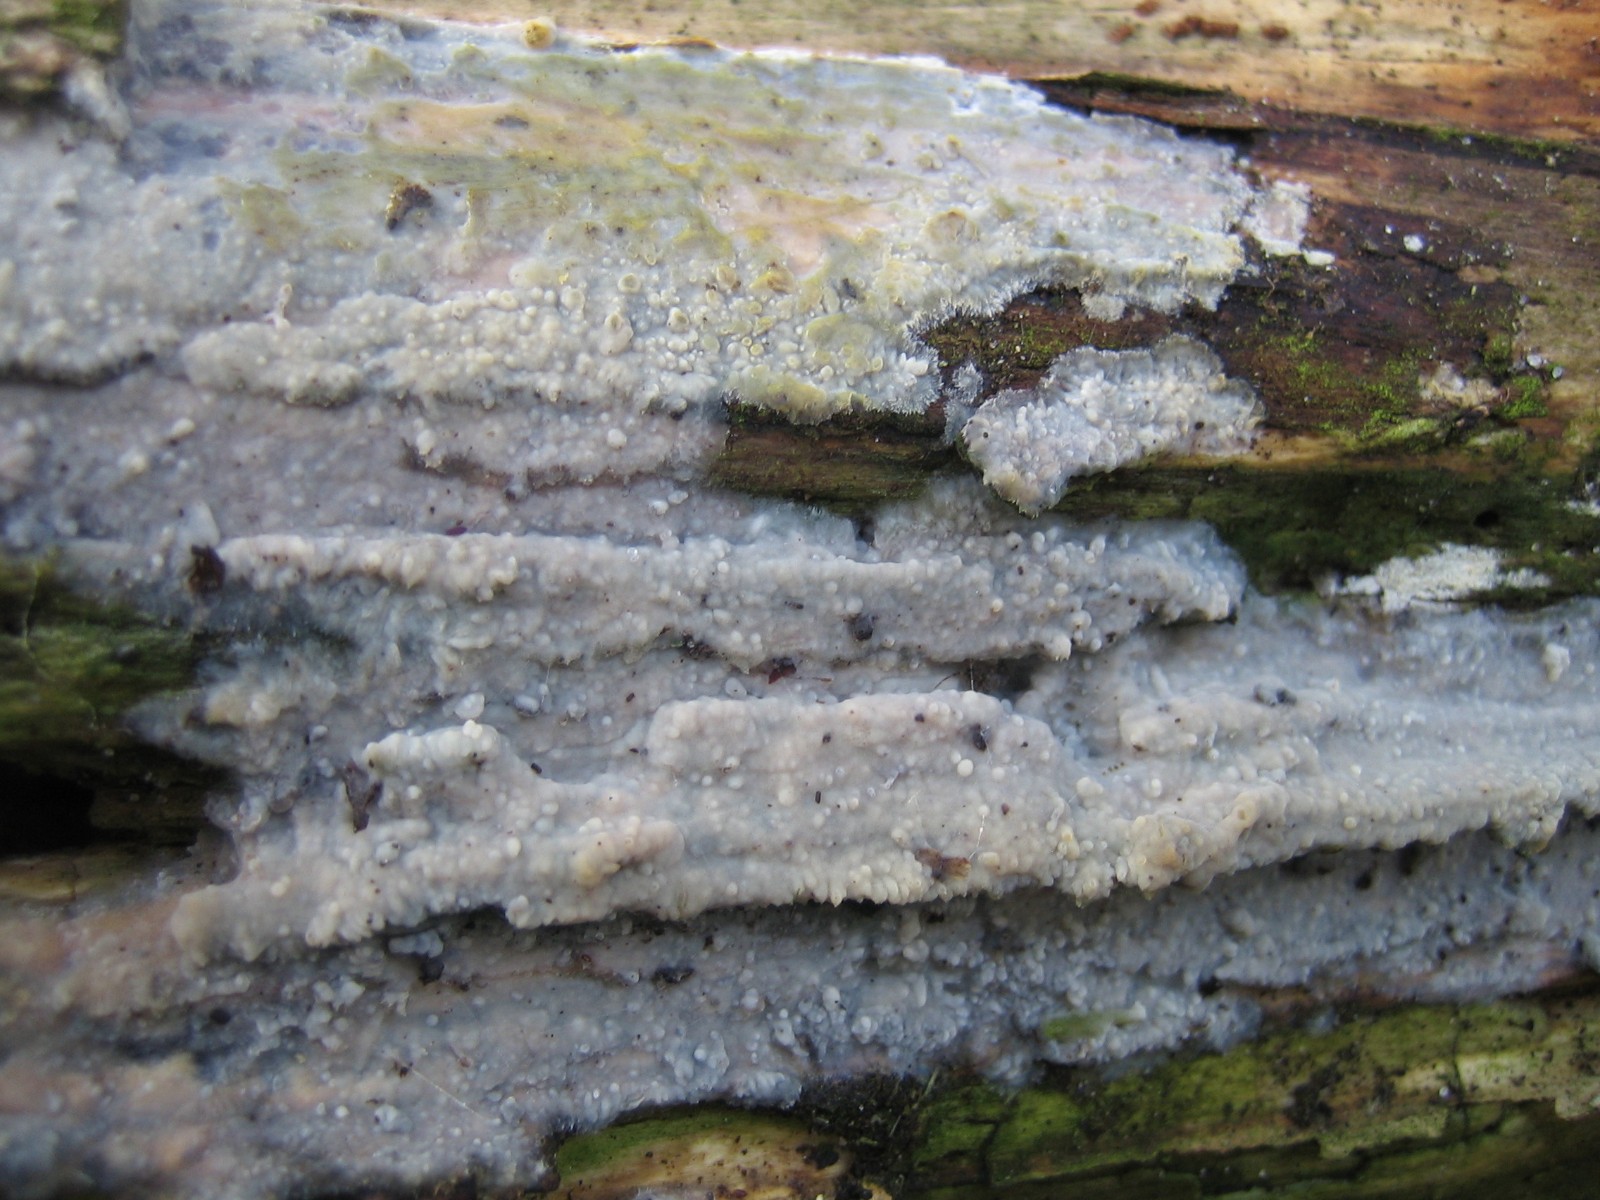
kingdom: Fungi
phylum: Basidiomycota
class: Agaricomycetes
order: Agaricales
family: Radulomycetaceae
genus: Radulomyces
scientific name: Radulomyces confluens
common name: glat naftalinskind
